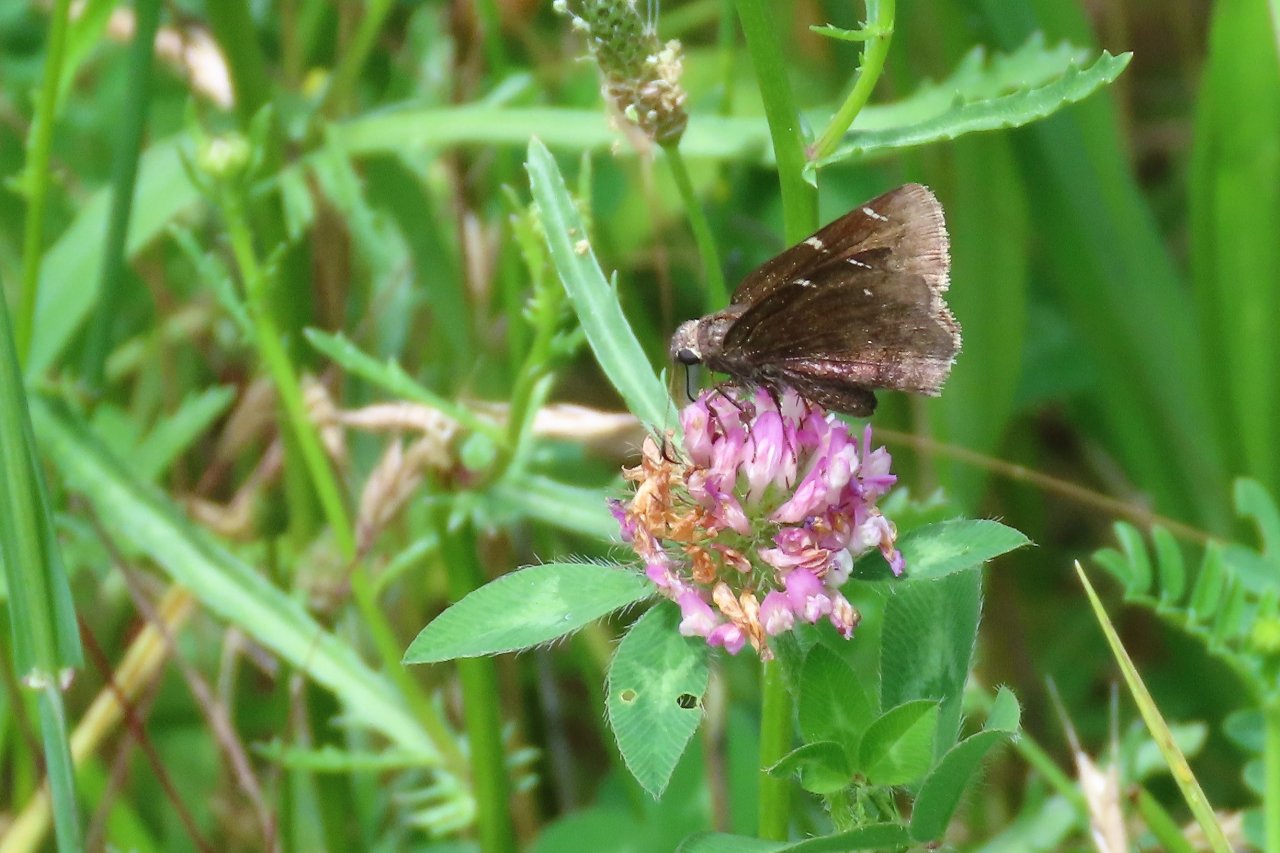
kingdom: Animalia
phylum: Arthropoda
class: Insecta
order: Lepidoptera
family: Hesperiidae
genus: Autochton
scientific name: Autochton
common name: Northern Cloudywing
